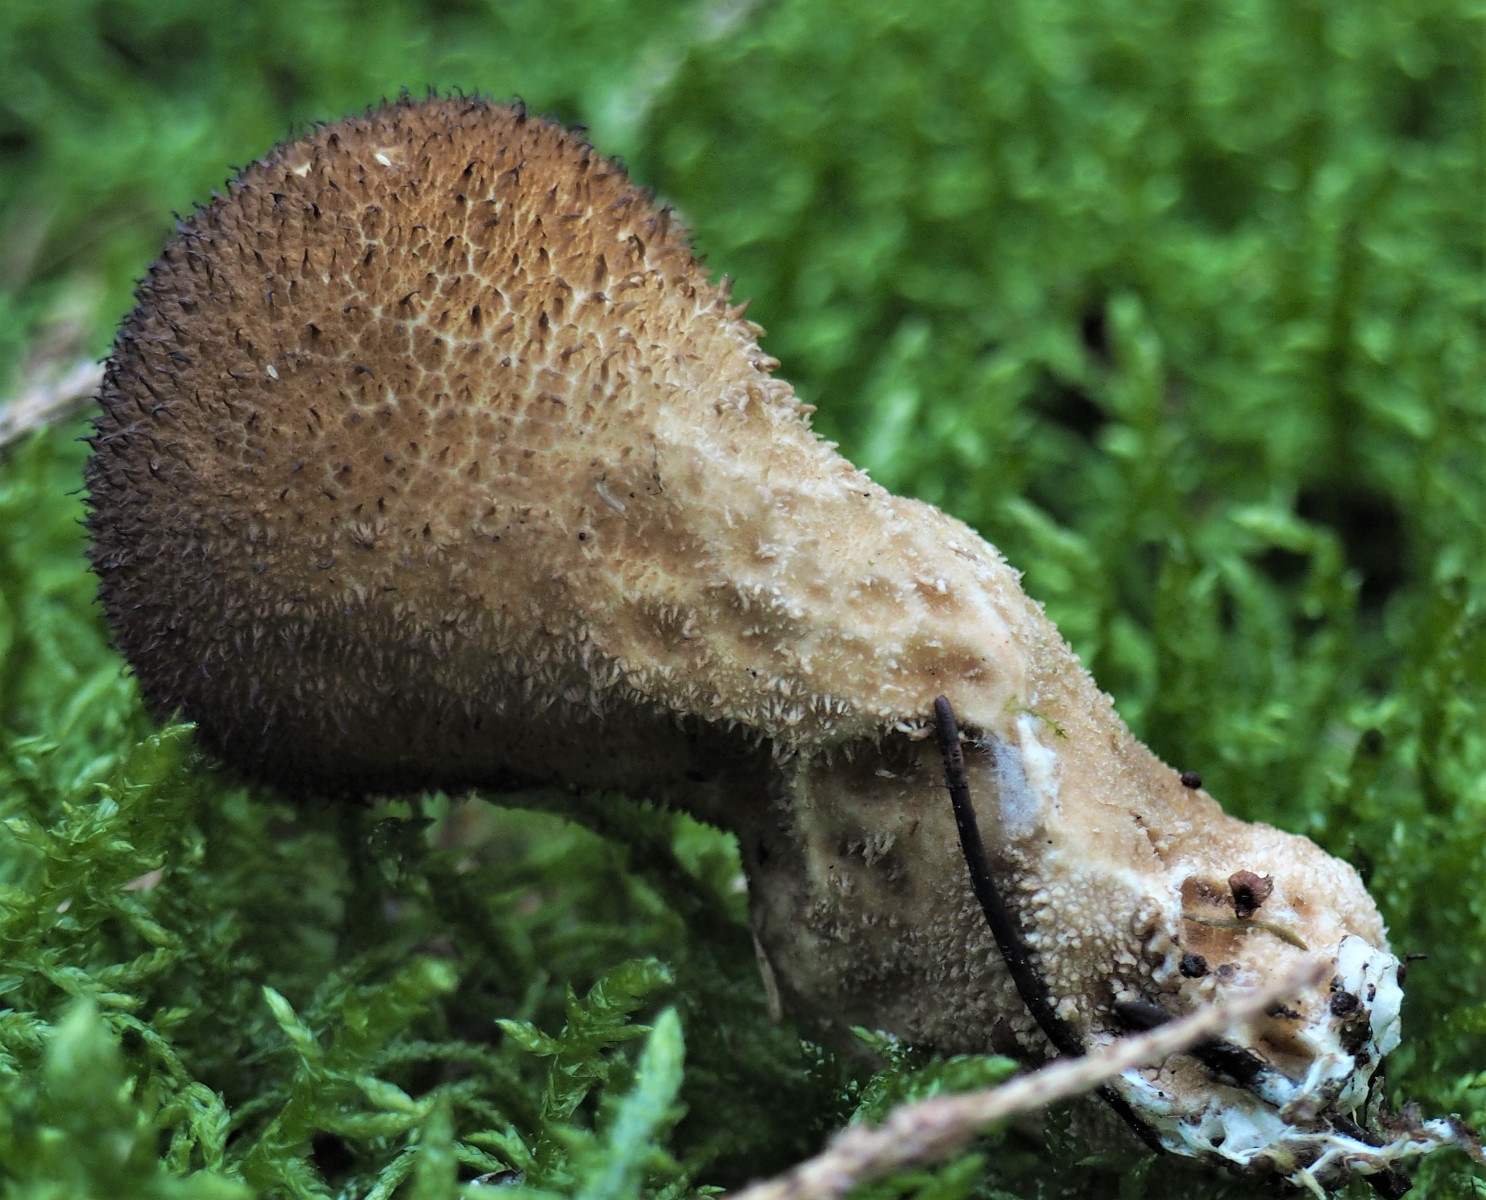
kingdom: Fungi
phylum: Basidiomycota
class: Agaricomycetes
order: Agaricales
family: Lycoperdaceae
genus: Lycoperdon
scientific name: Lycoperdon nigrescens
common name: sortagtig støvbold
